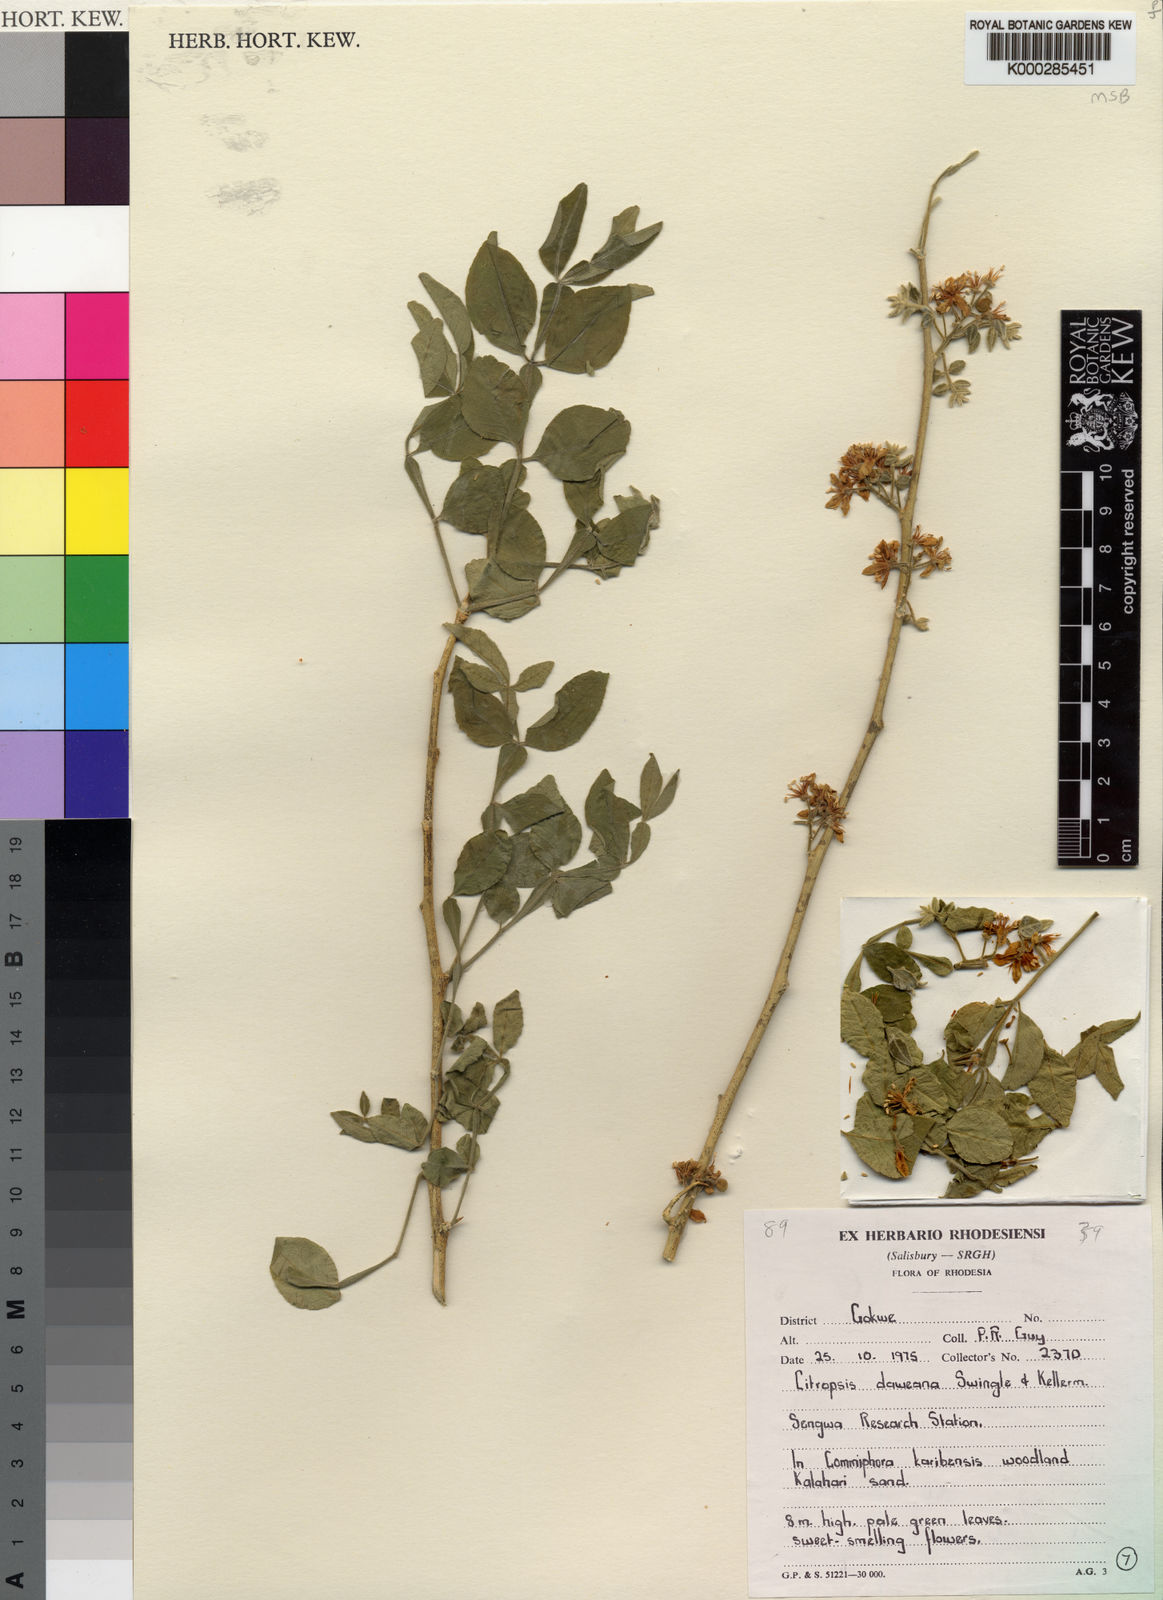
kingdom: Plantae
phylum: Tracheophyta
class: Magnoliopsida
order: Sapindales
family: Rutaceae
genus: Citropsis
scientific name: Citropsis daweana
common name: Mozambique-cherry-orange
